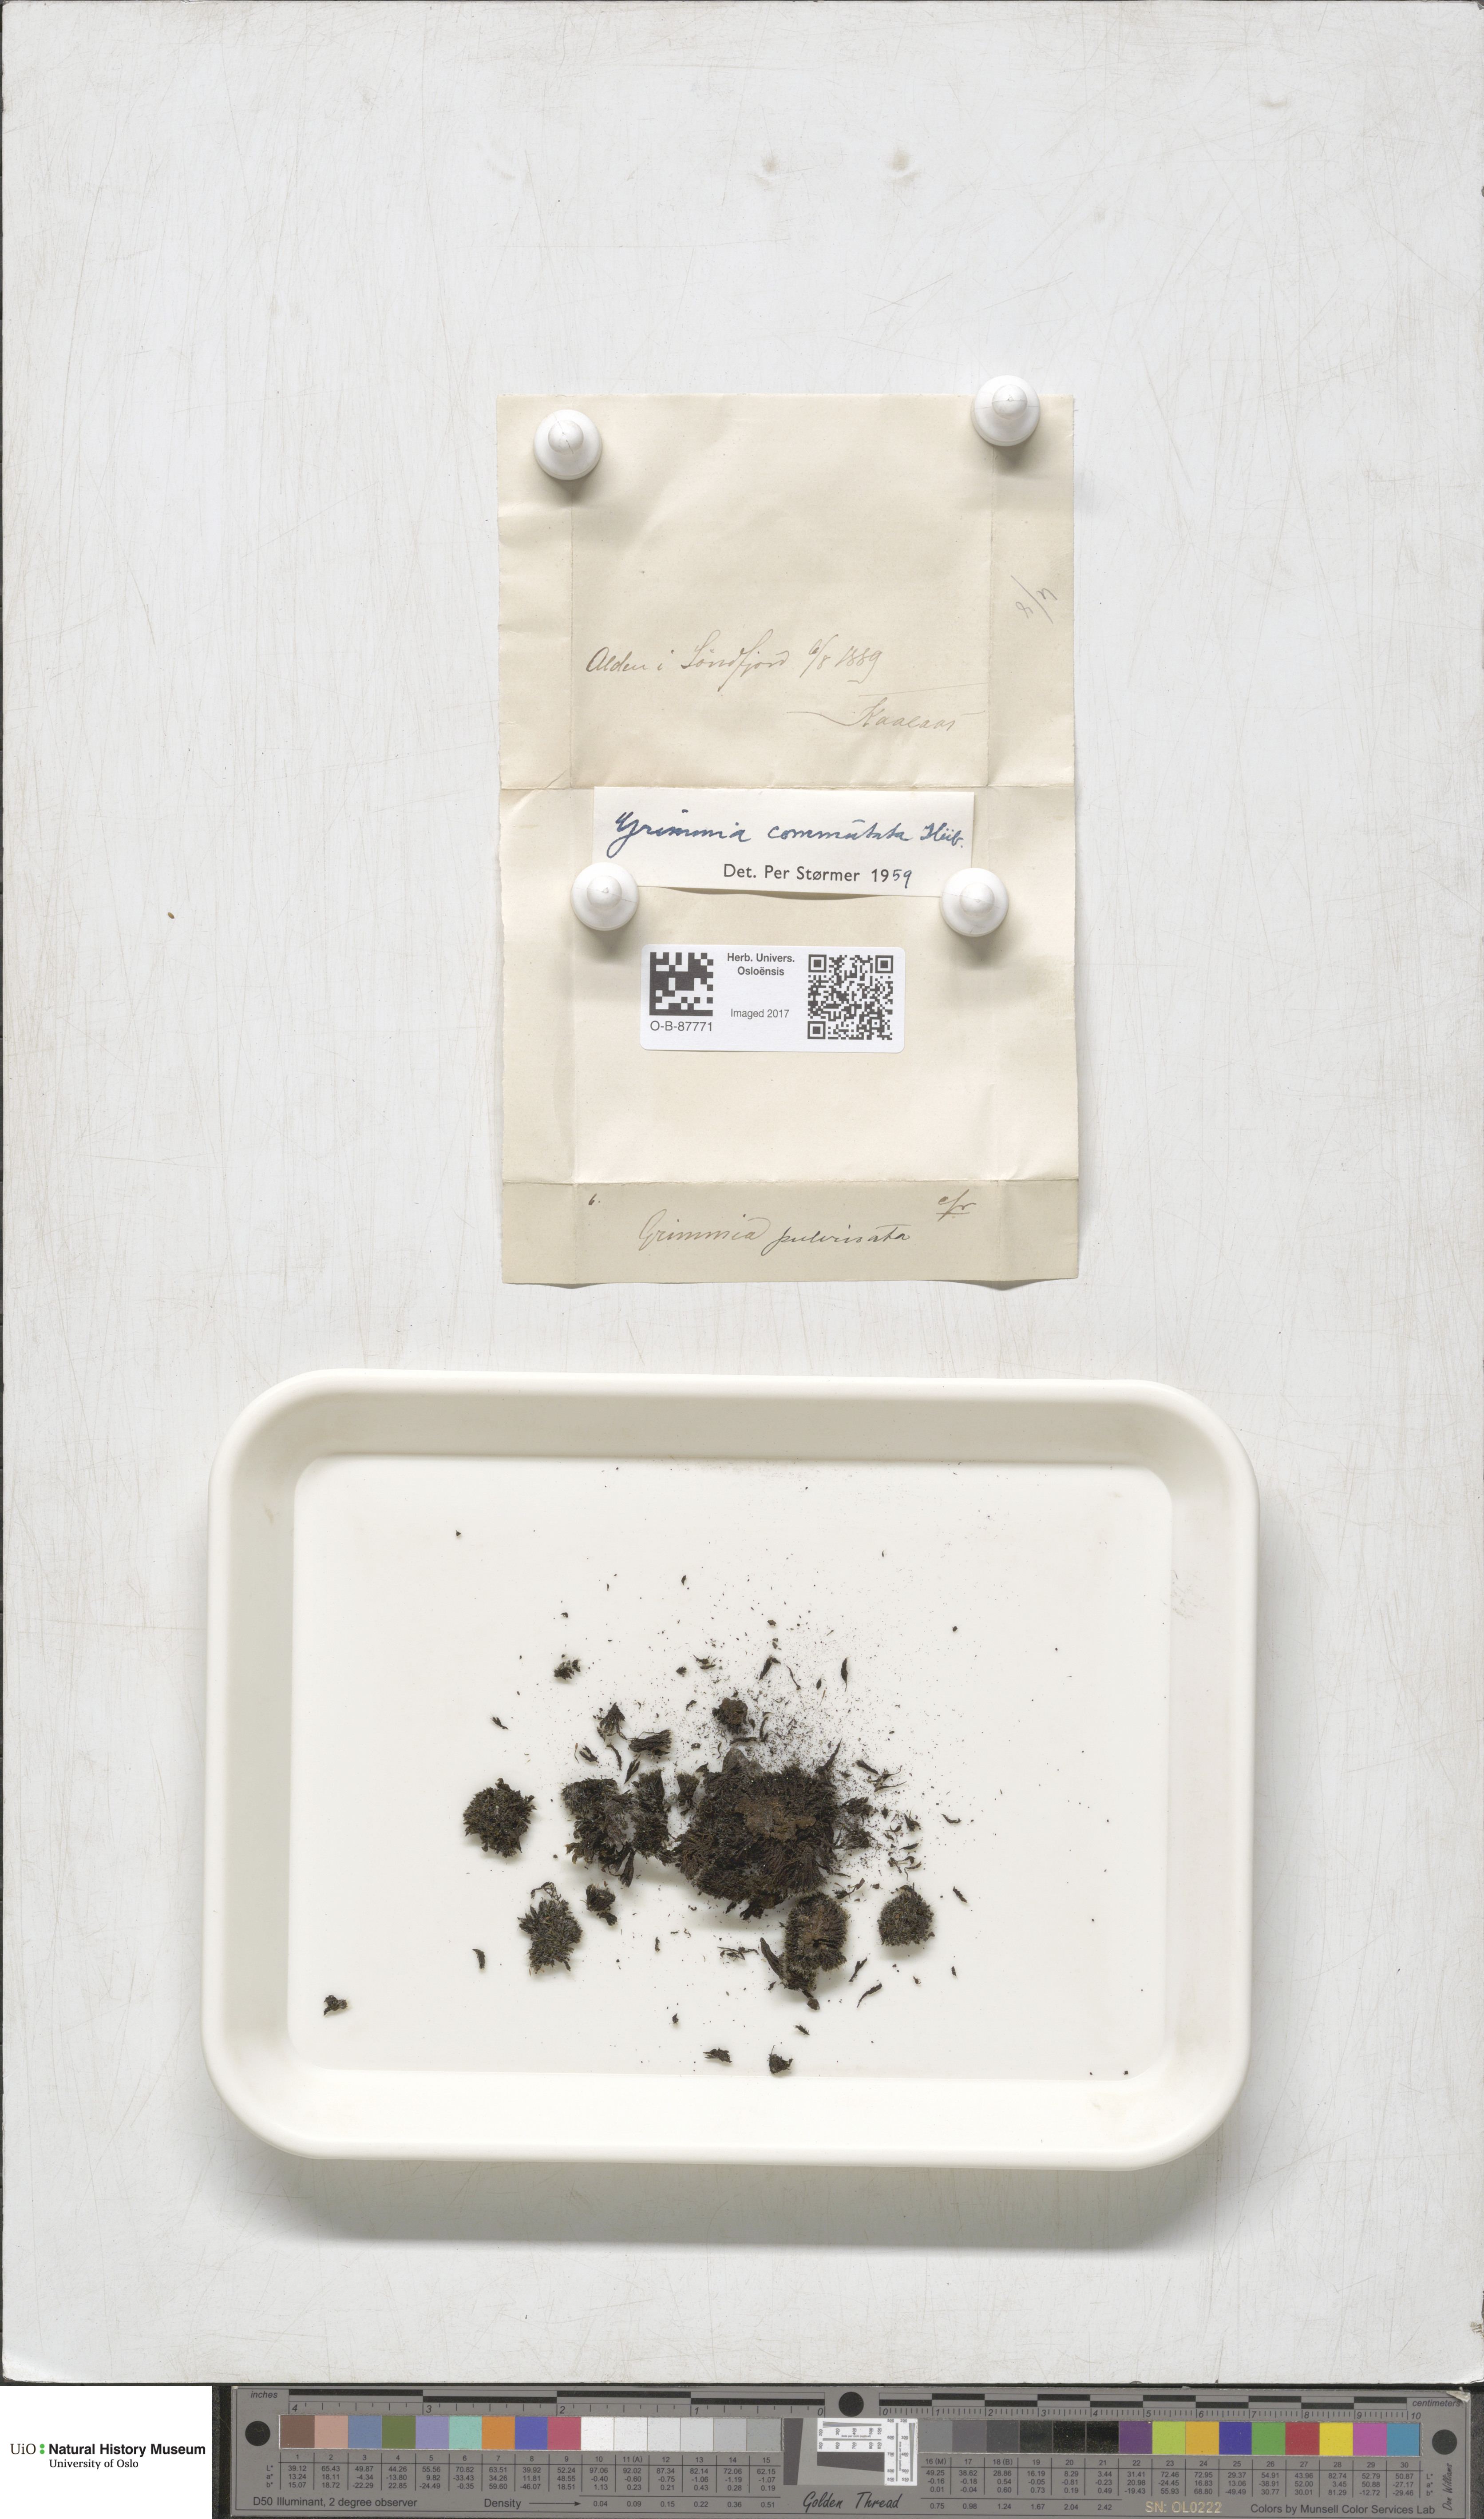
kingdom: Plantae
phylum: Bryophyta
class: Bryopsida
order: Grimmiales
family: Grimmiaceae
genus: Grimmia
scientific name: Grimmia ovalis
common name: Oval grimmia
